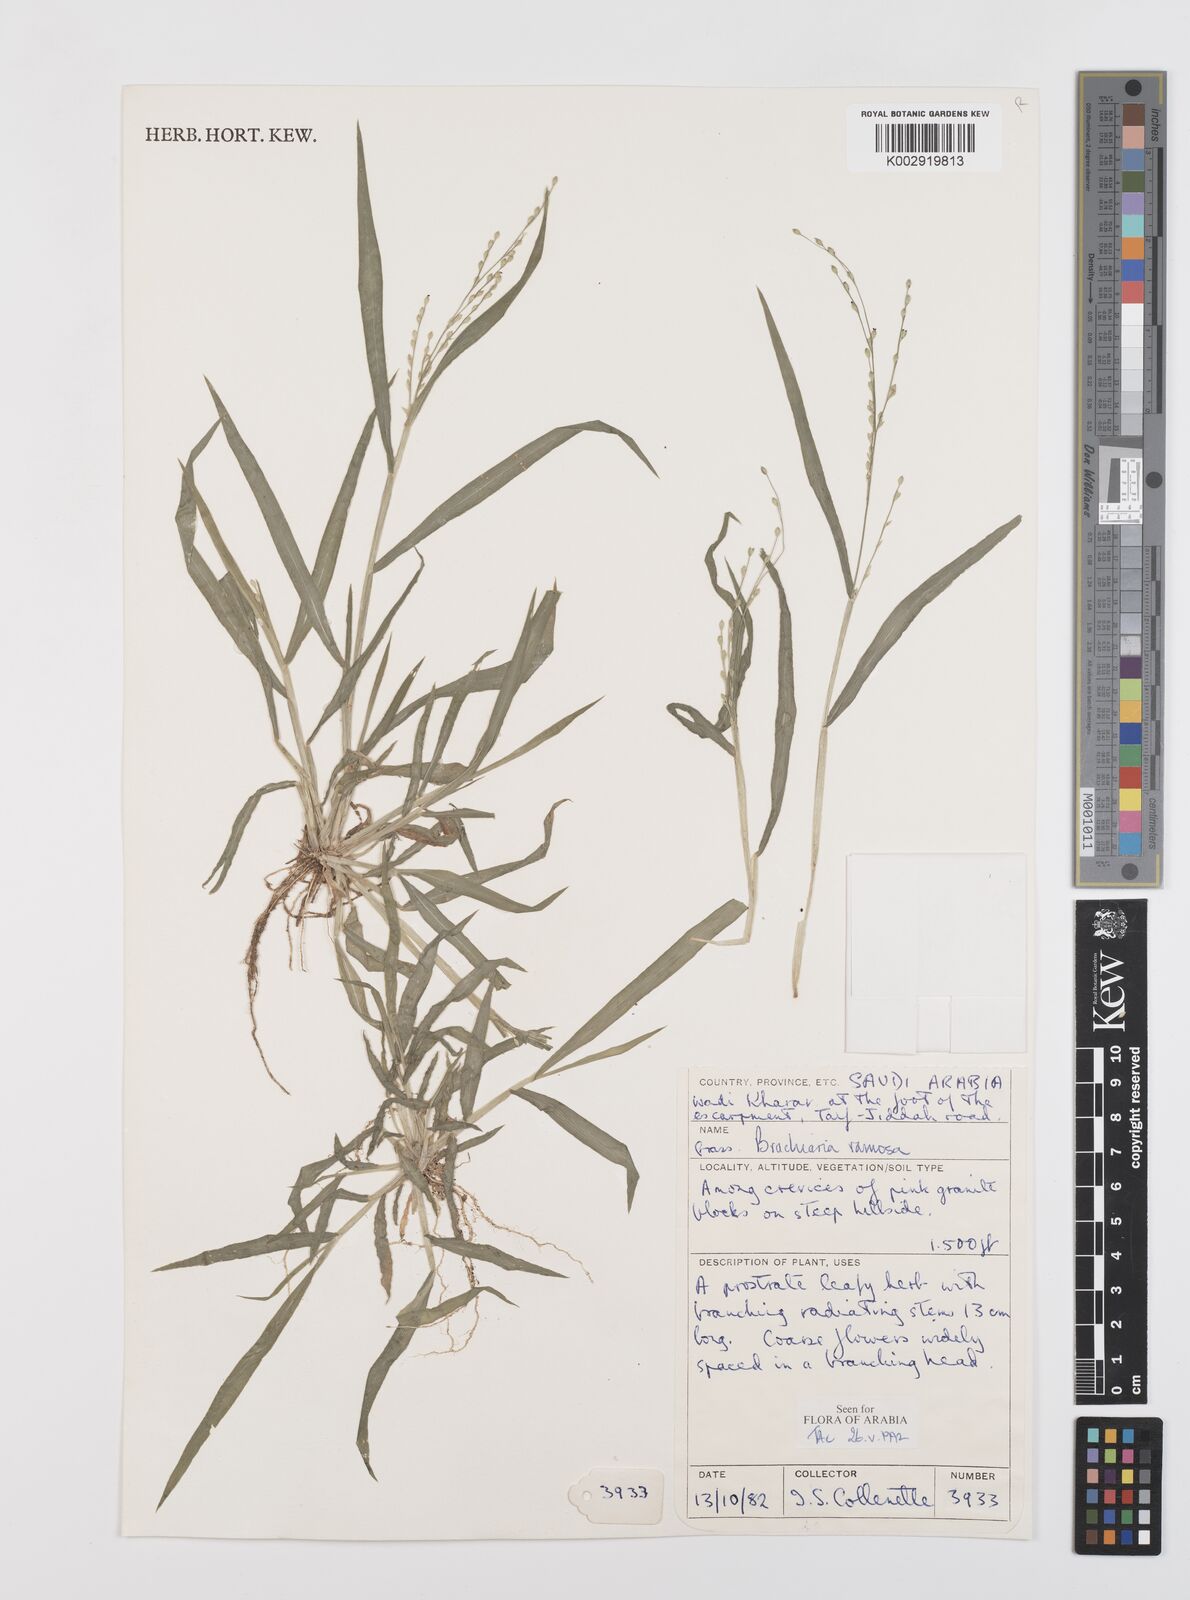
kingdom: Plantae
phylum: Tracheophyta
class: Liliopsida
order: Poales
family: Poaceae
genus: Urochloa
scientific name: Urochloa ramosa
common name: Browntop millet
